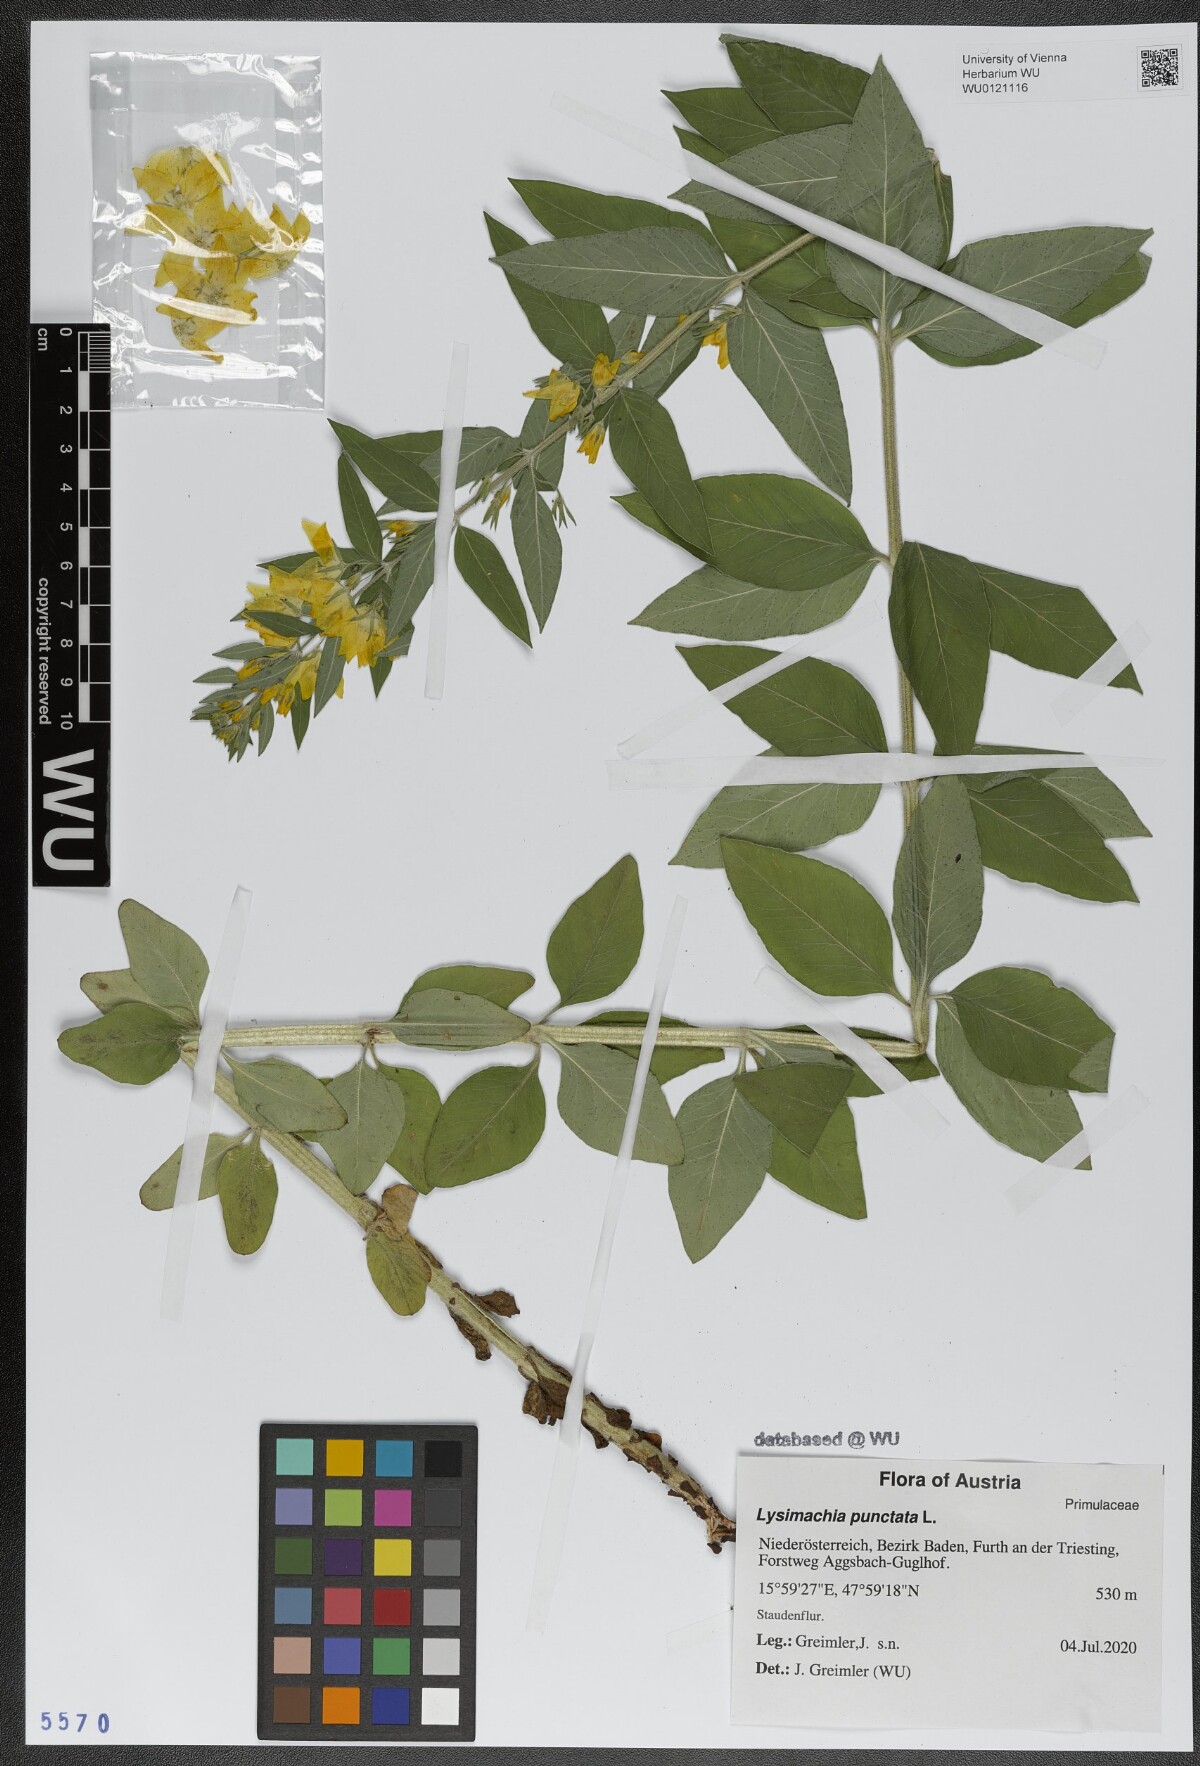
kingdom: Plantae
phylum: Tracheophyta
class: Magnoliopsida
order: Ericales
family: Primulaceae
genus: Lysimachia
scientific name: Lysimachia punctata
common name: Dotted loosestrife
